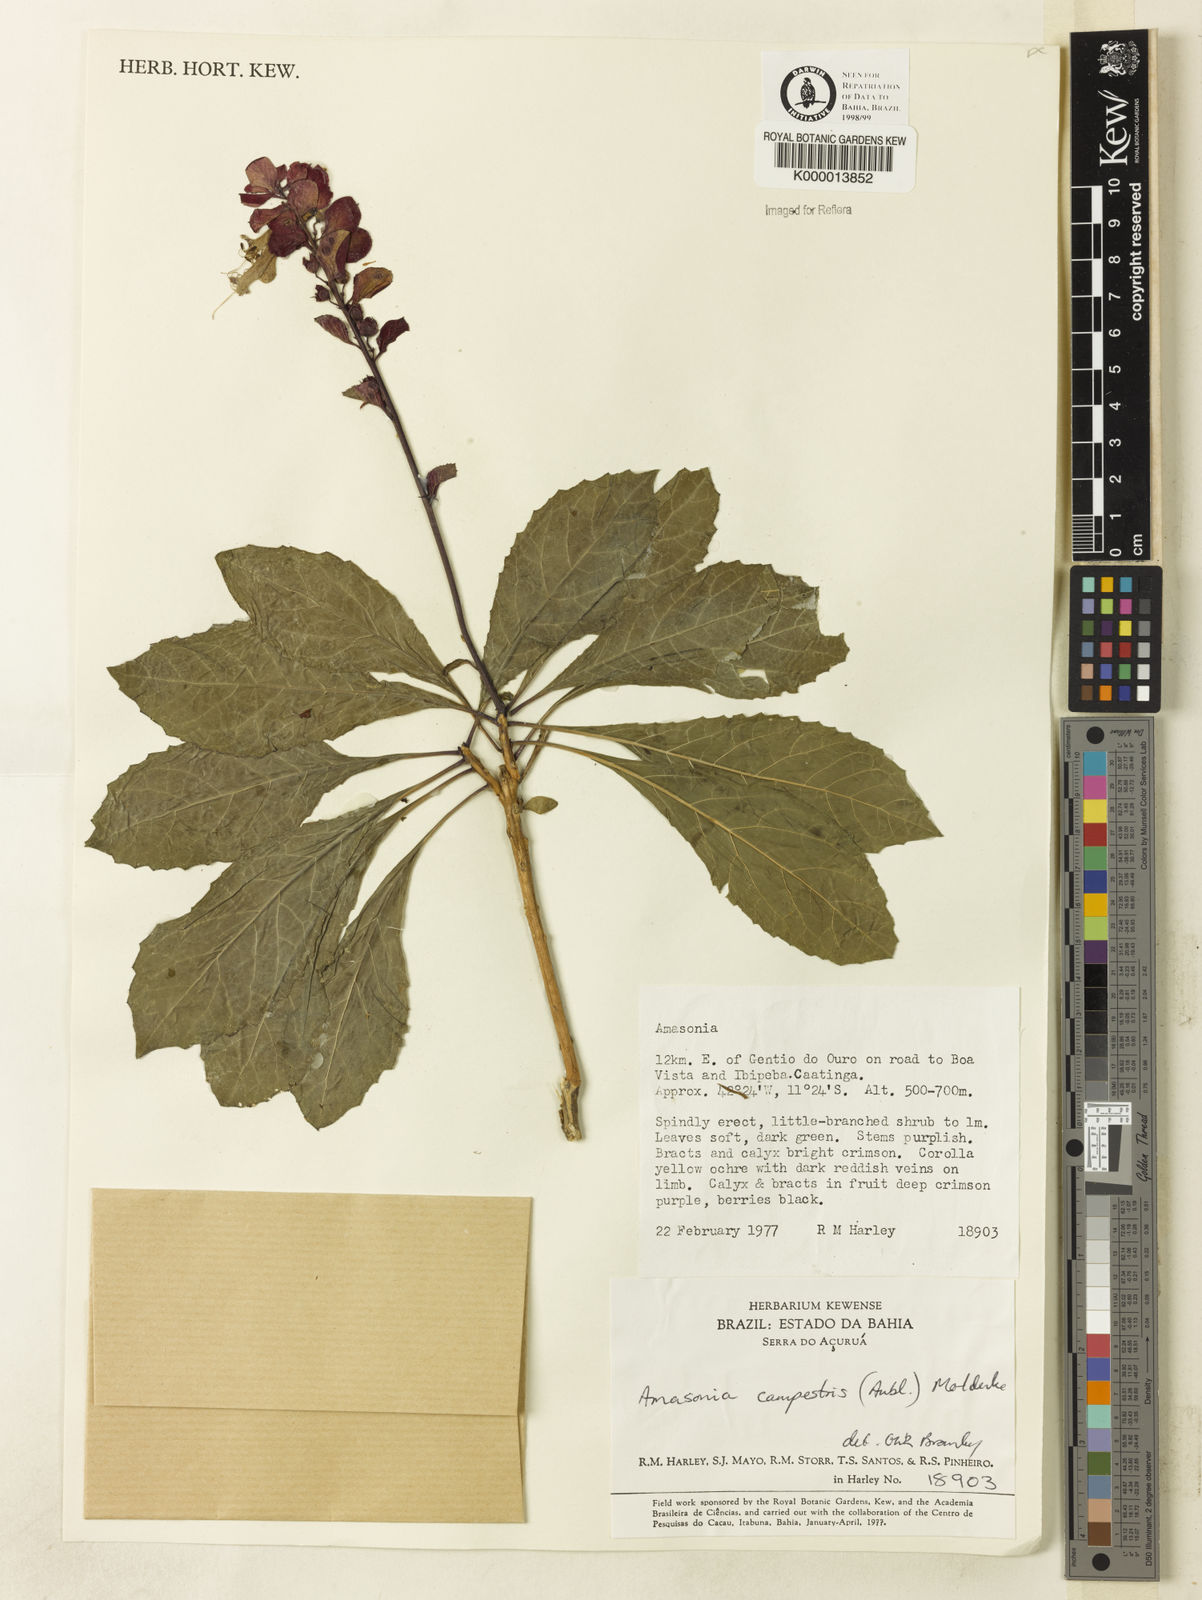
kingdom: Plantae
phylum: Tracheophyta
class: Magnoliopsida
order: Lamiales
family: Lamiaceae
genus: Amasonia
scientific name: Amasonia campestris
